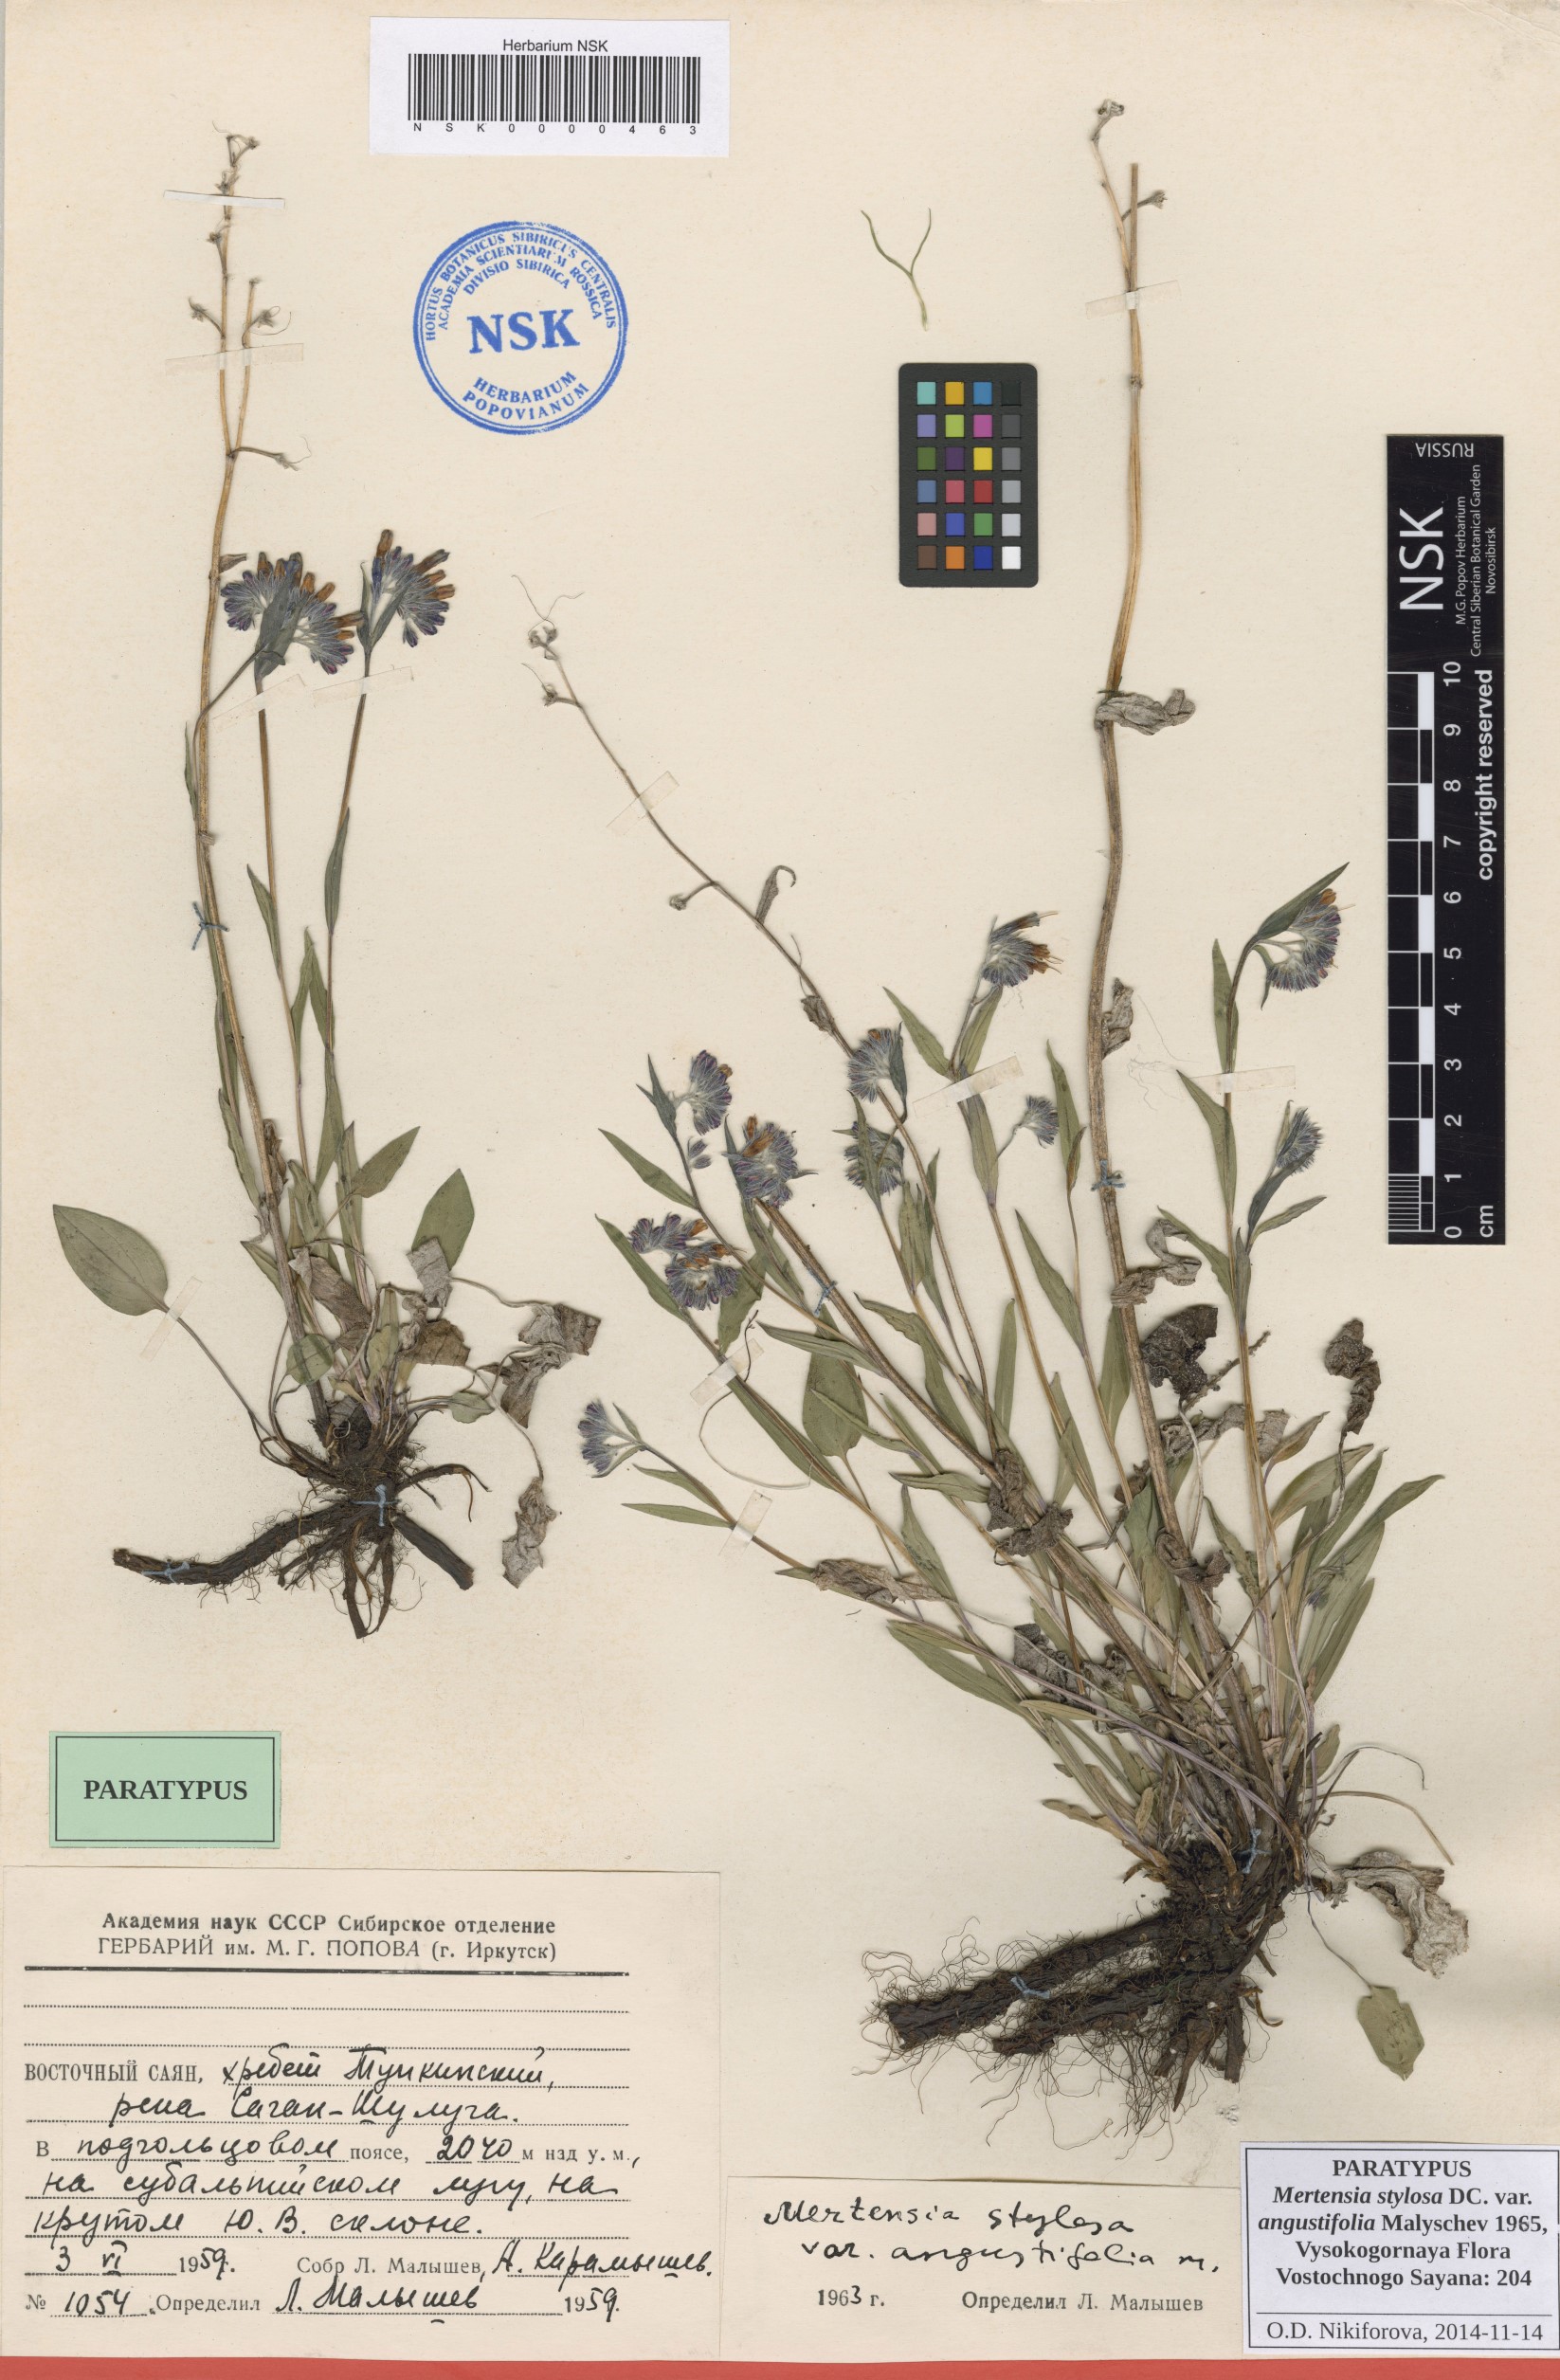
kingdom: Plantae
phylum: Tracheophyta
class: Magnoliopsida
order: Boraginales
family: Boraginaceae
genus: Mertensia
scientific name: Mertensia stylosa
